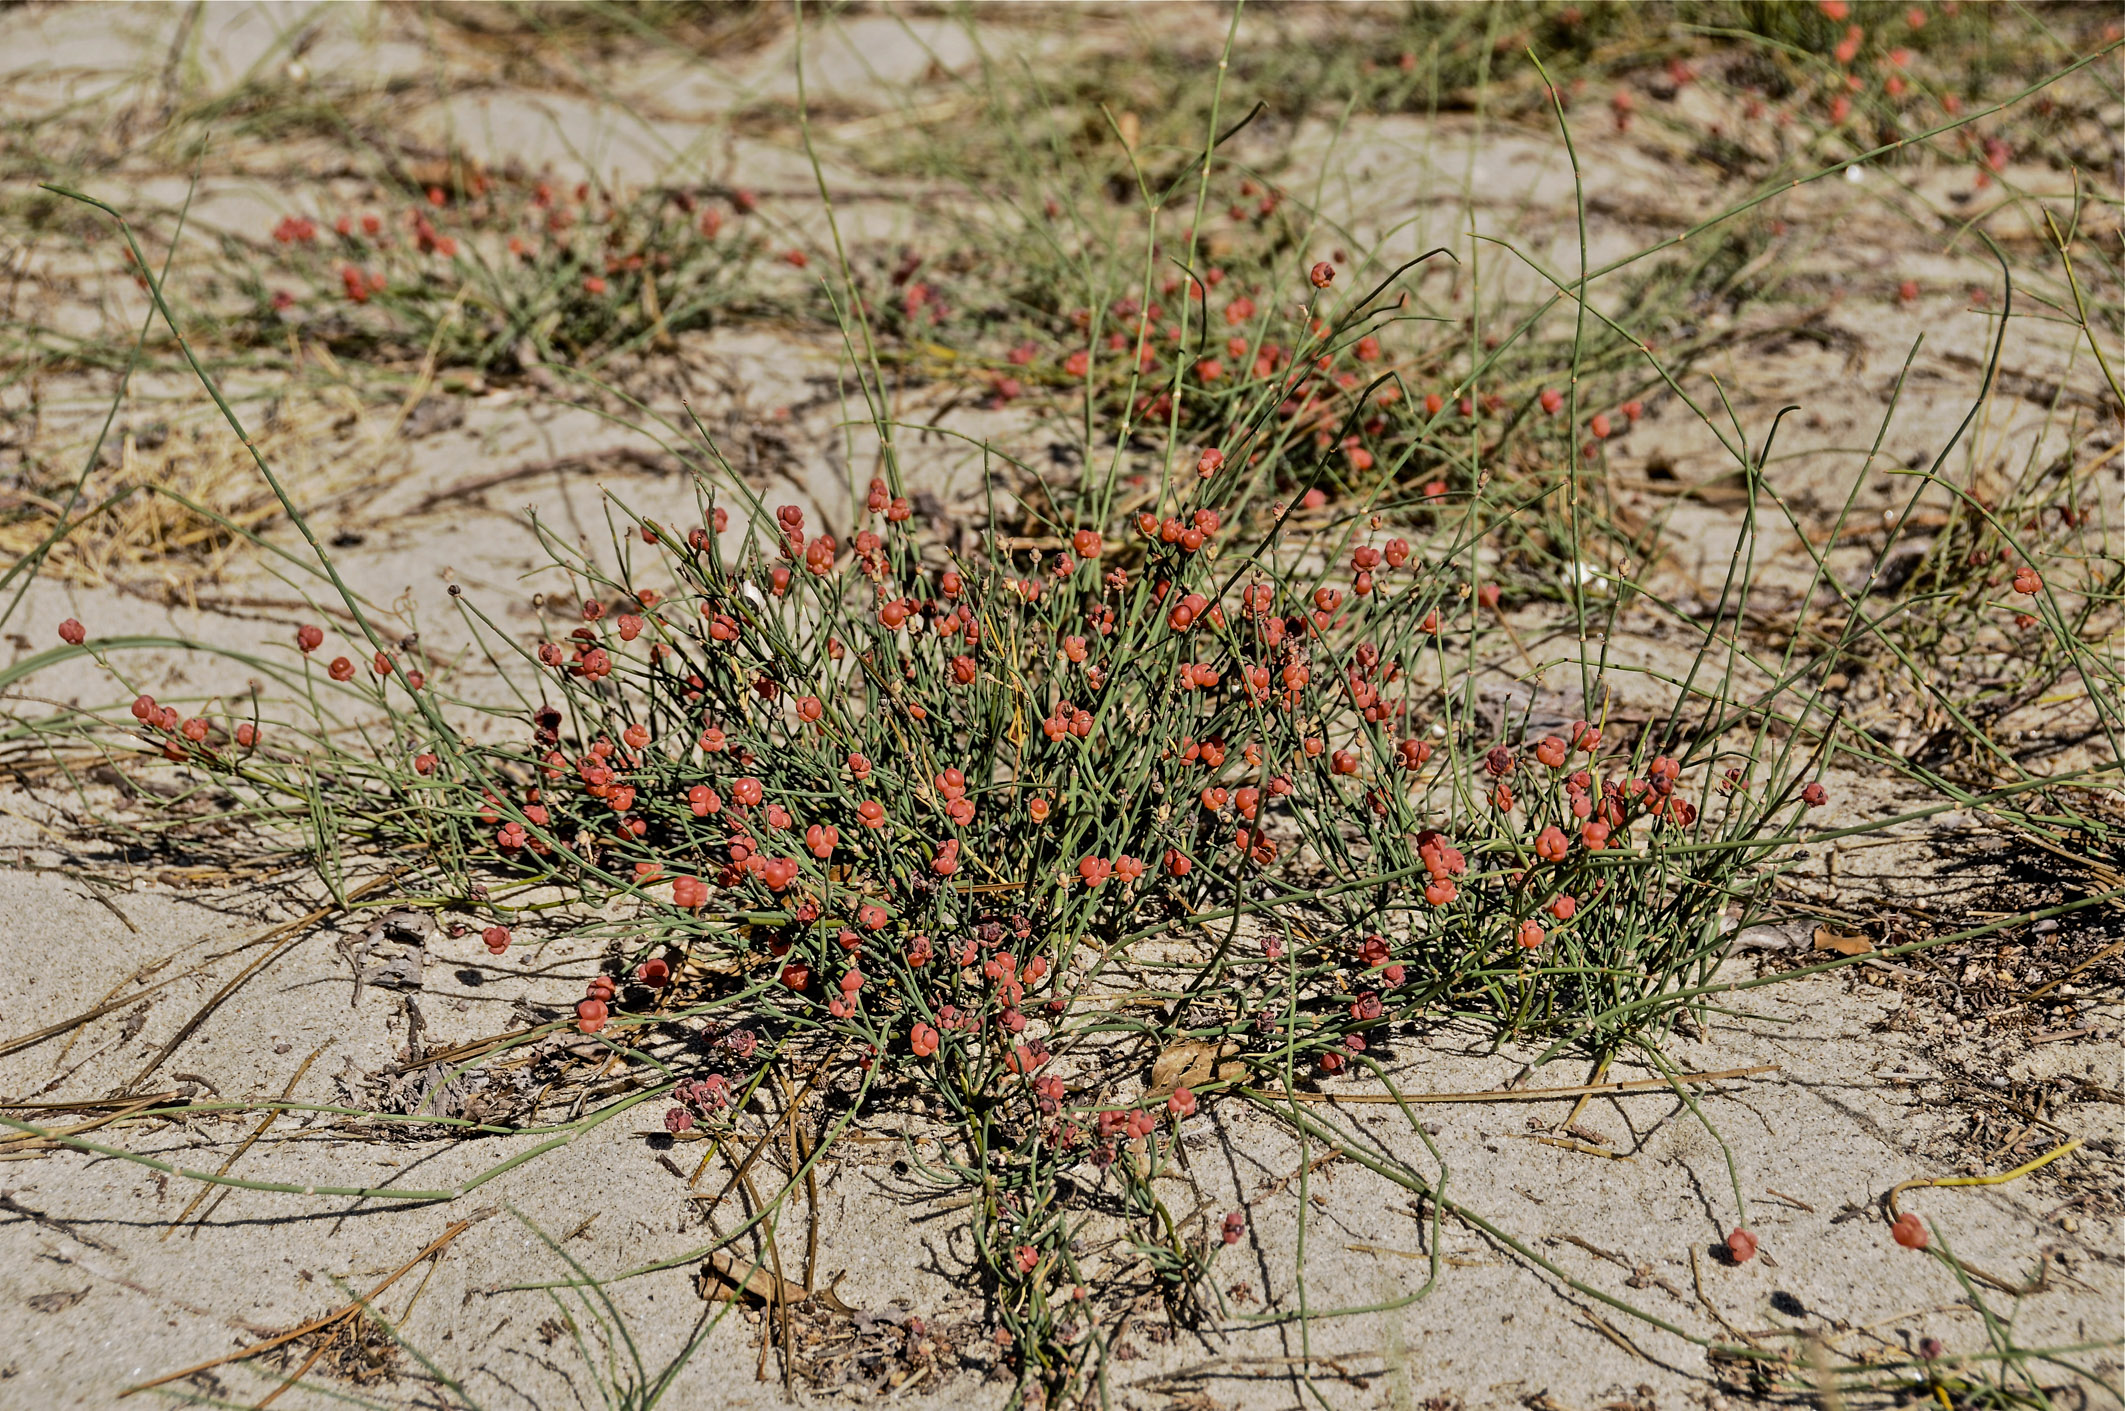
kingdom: Plantae
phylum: Tracheophyta
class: Gnetopsida
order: Ephedrales
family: Ephedraceae
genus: Ephedra
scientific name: Ephedra distachya
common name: Sea grape
